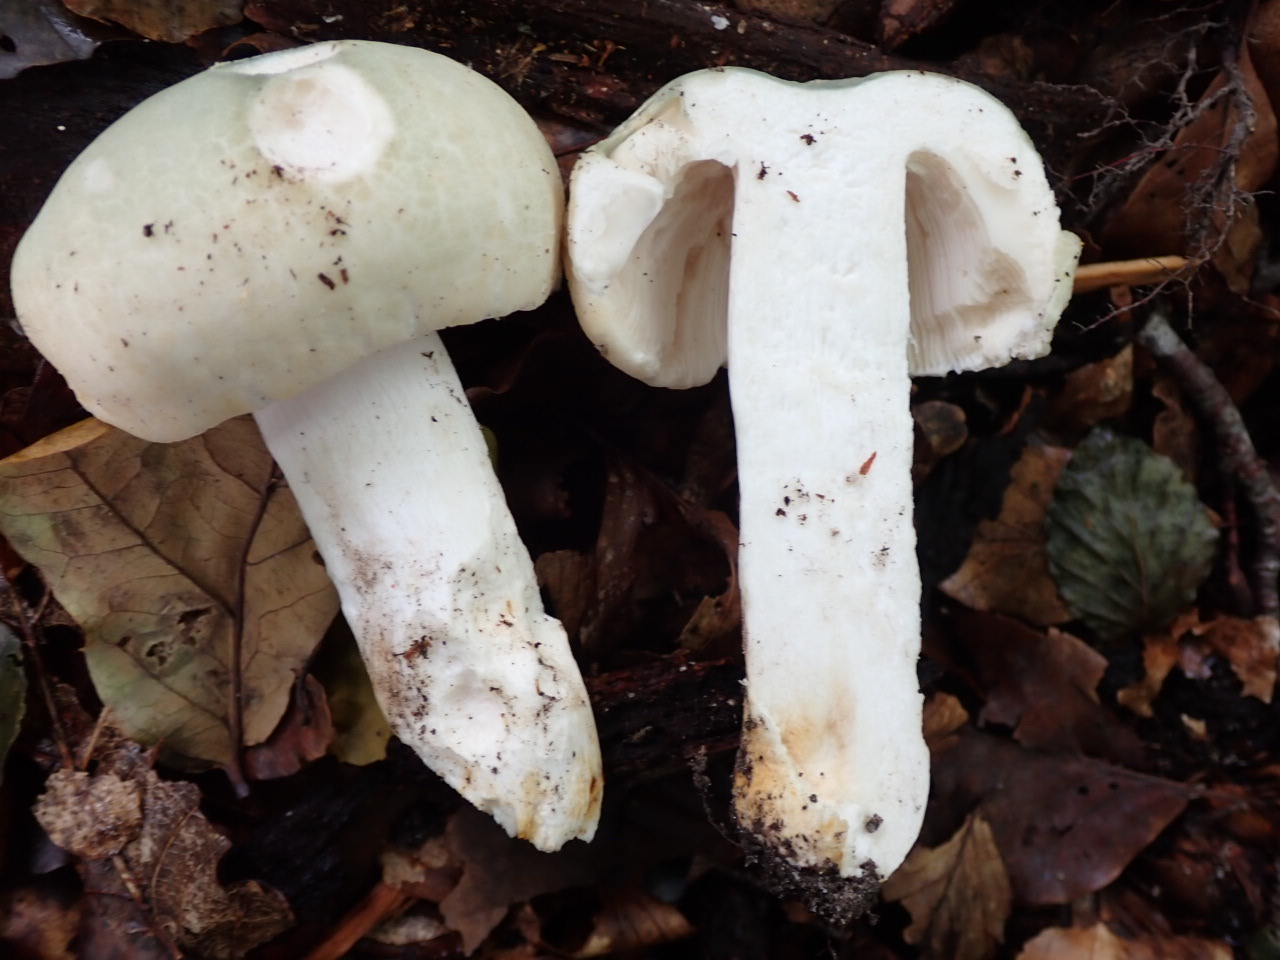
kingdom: Fungi
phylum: Basidiomycota
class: Agaricomycetes
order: Russulales
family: Russulaceae
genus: Russula
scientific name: Russula virescens
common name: spanskgrøn skørhat
